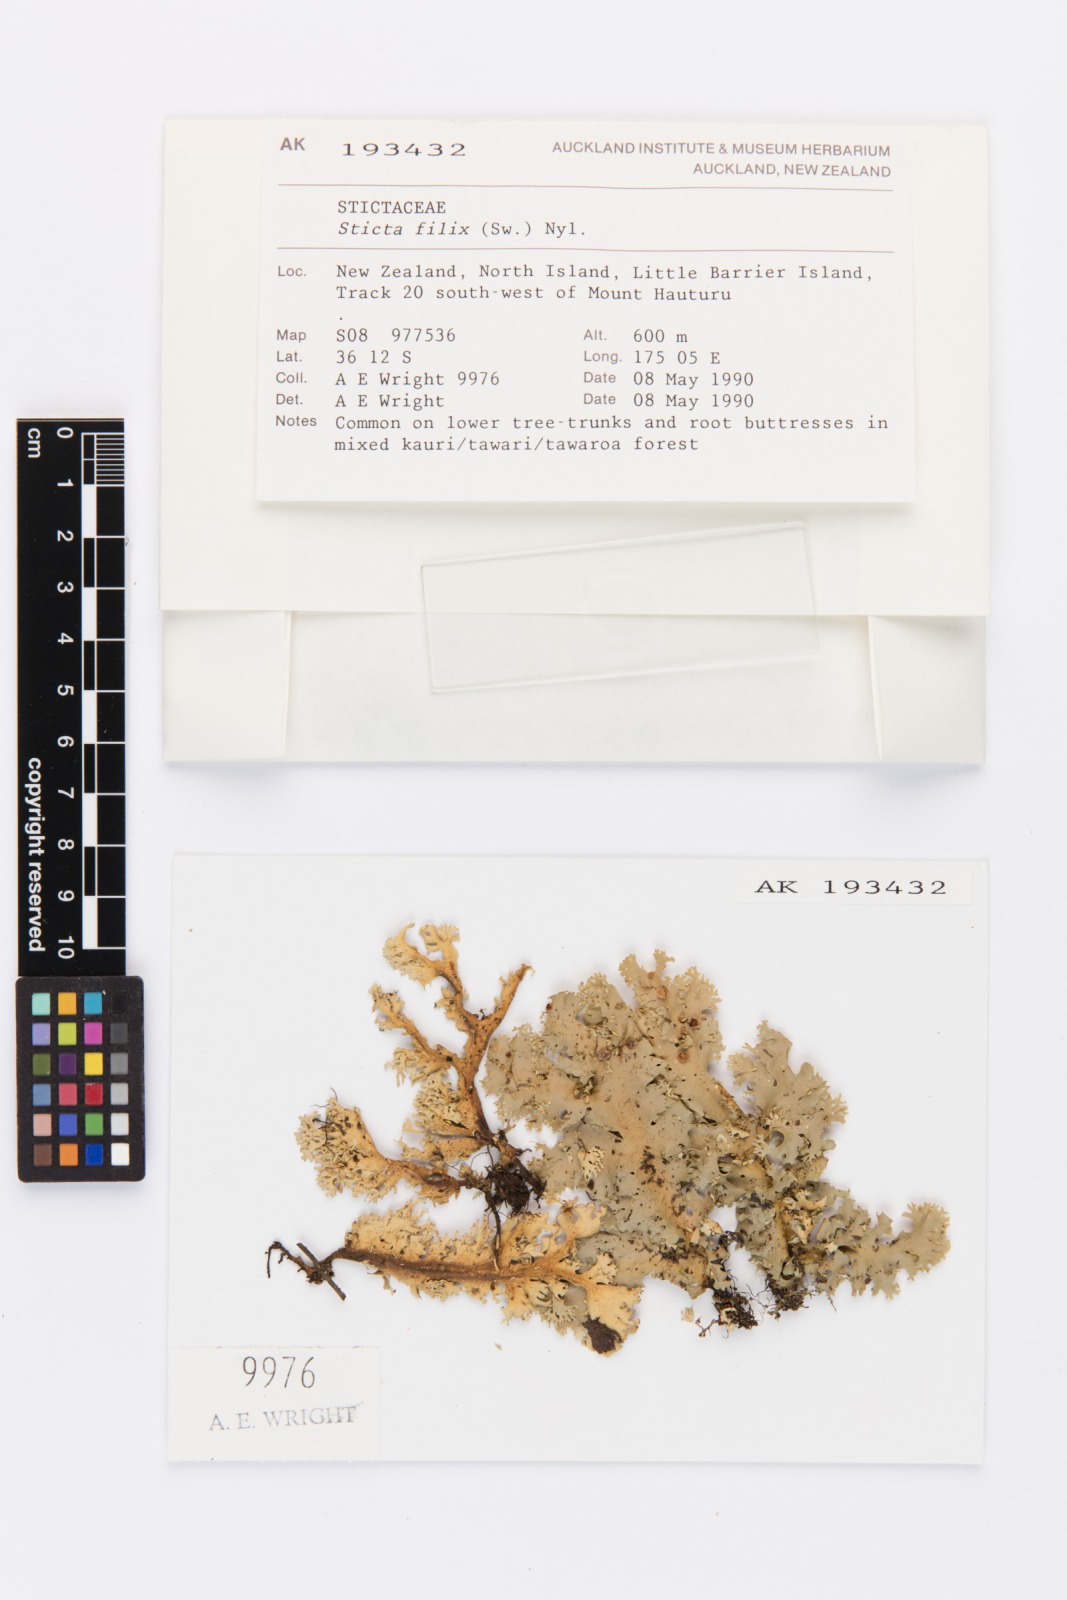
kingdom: Fungi
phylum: Ascomycota
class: Lecanoromycetes
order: Peltigerales
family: Lobariaceae
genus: Sticta
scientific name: Sticta filix
